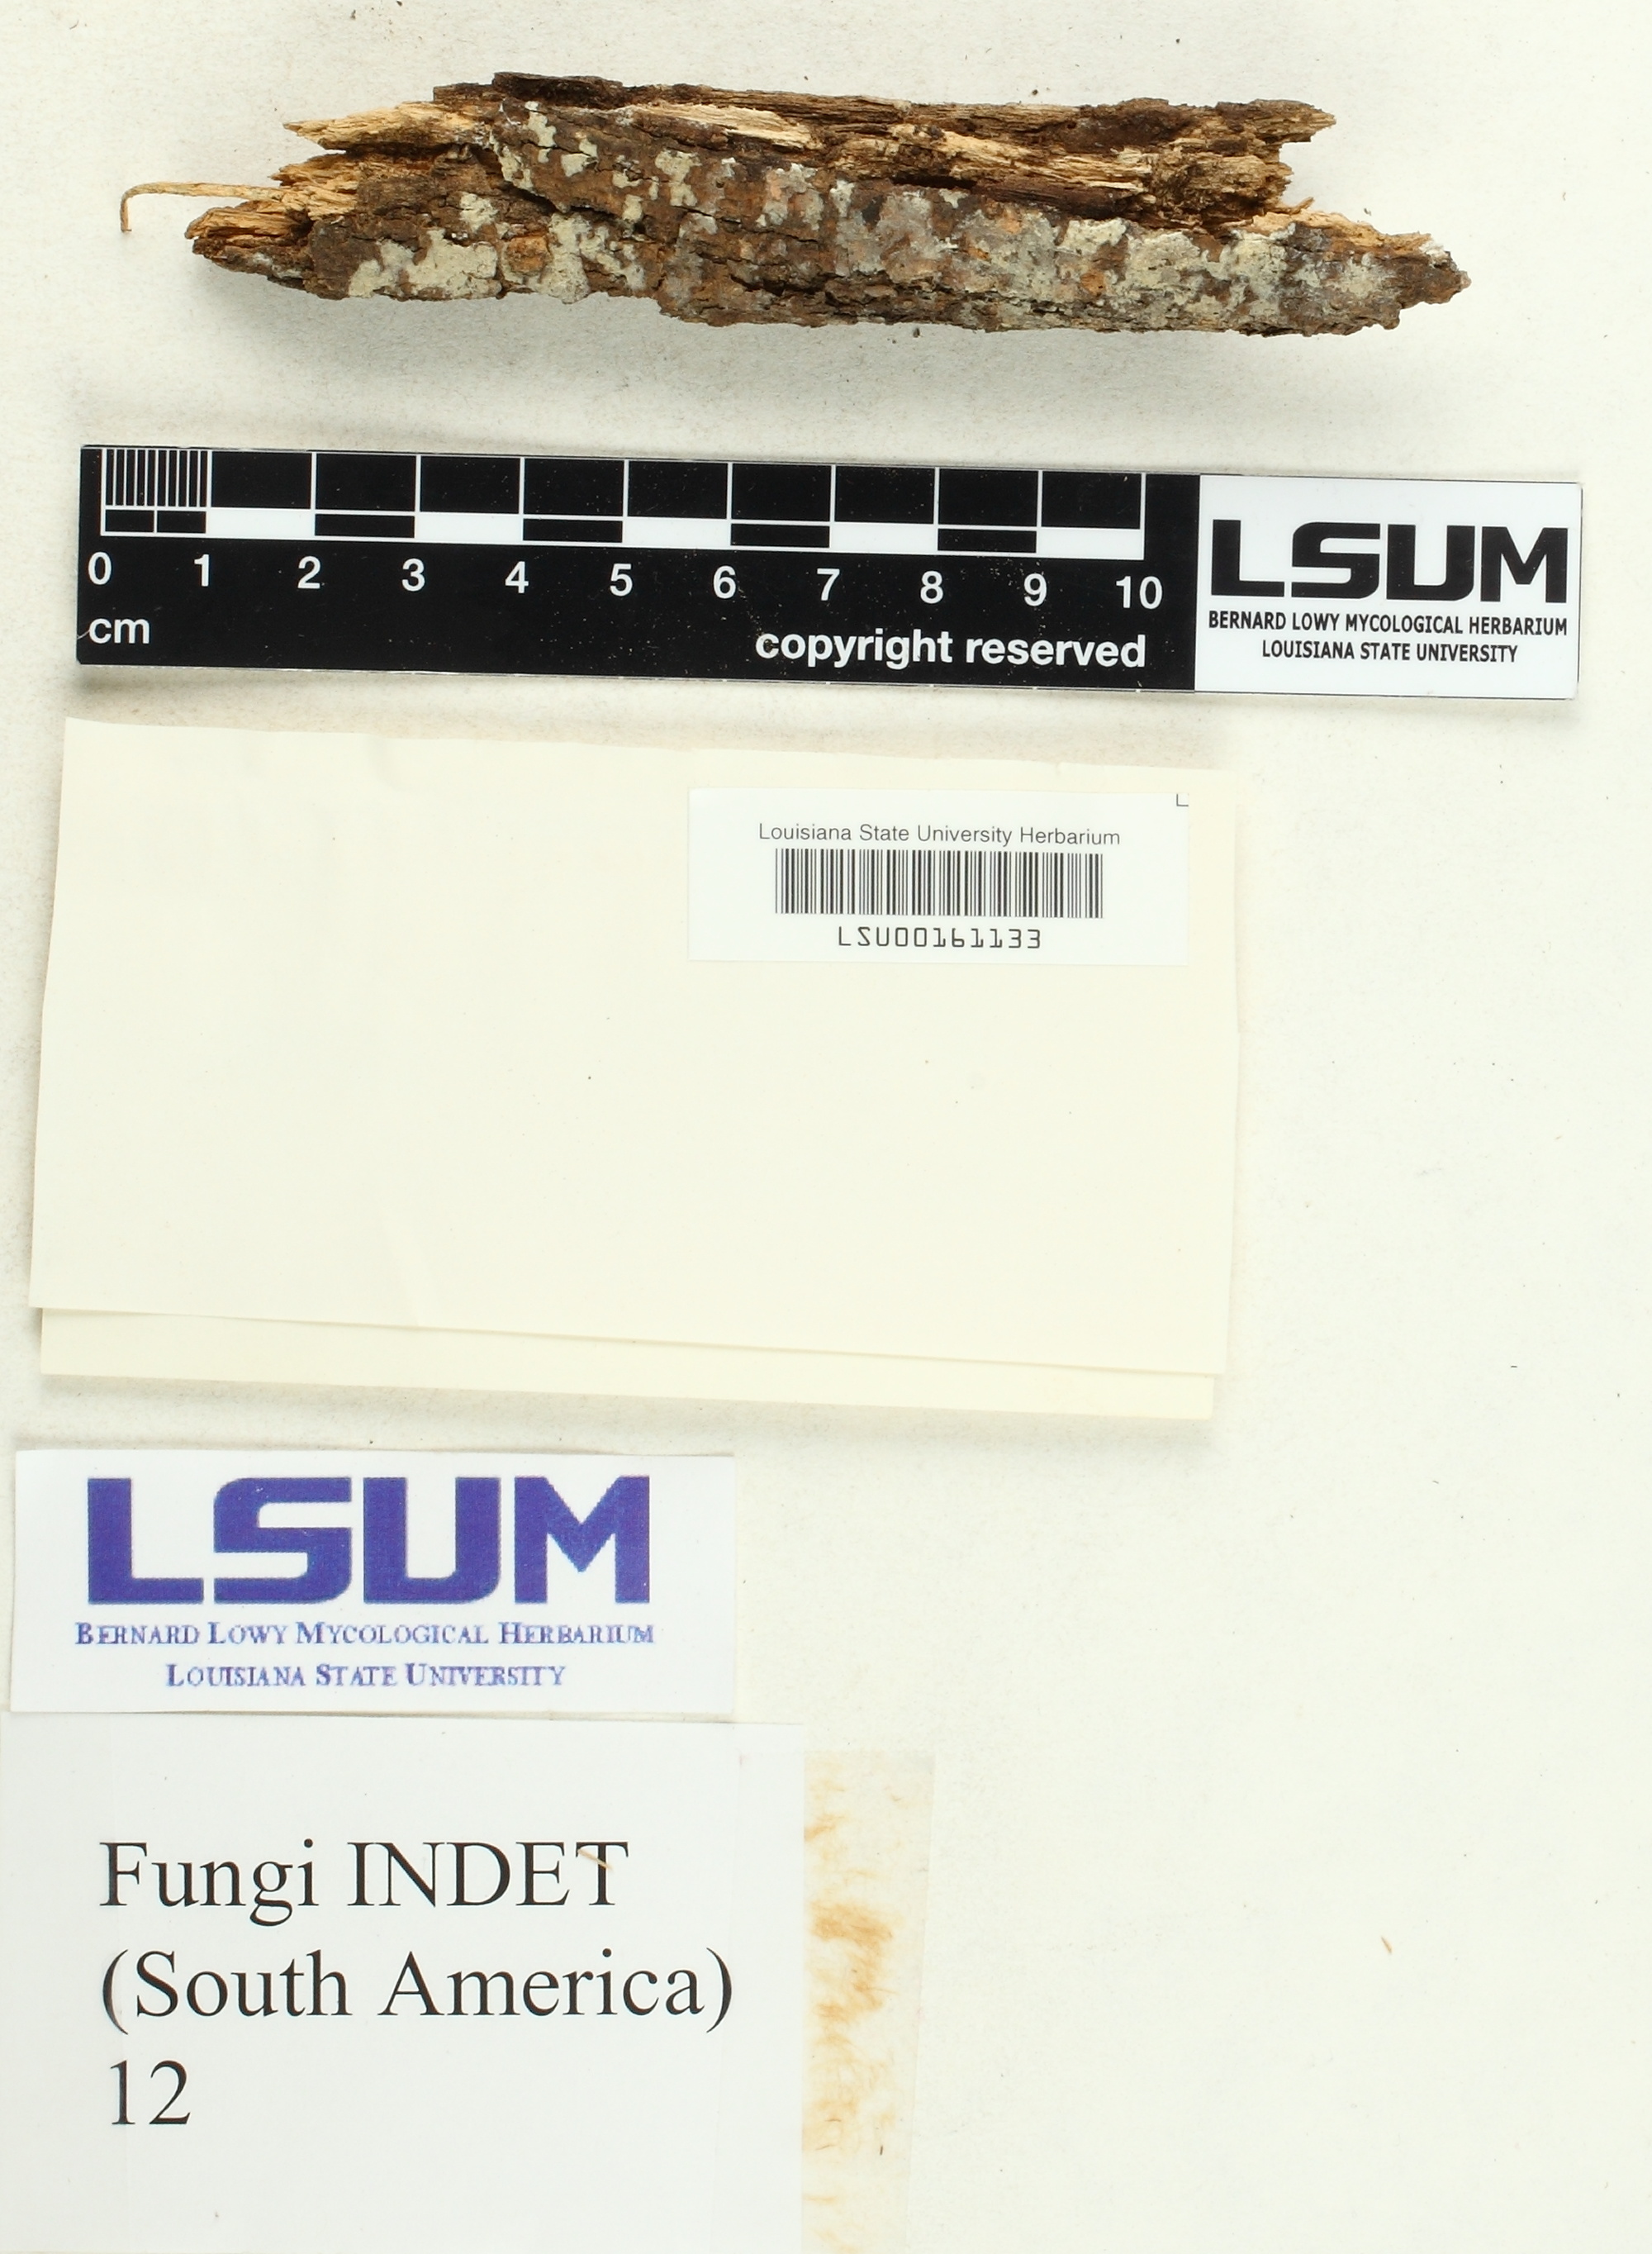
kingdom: Fungi
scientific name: Fungi
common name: Fungi
